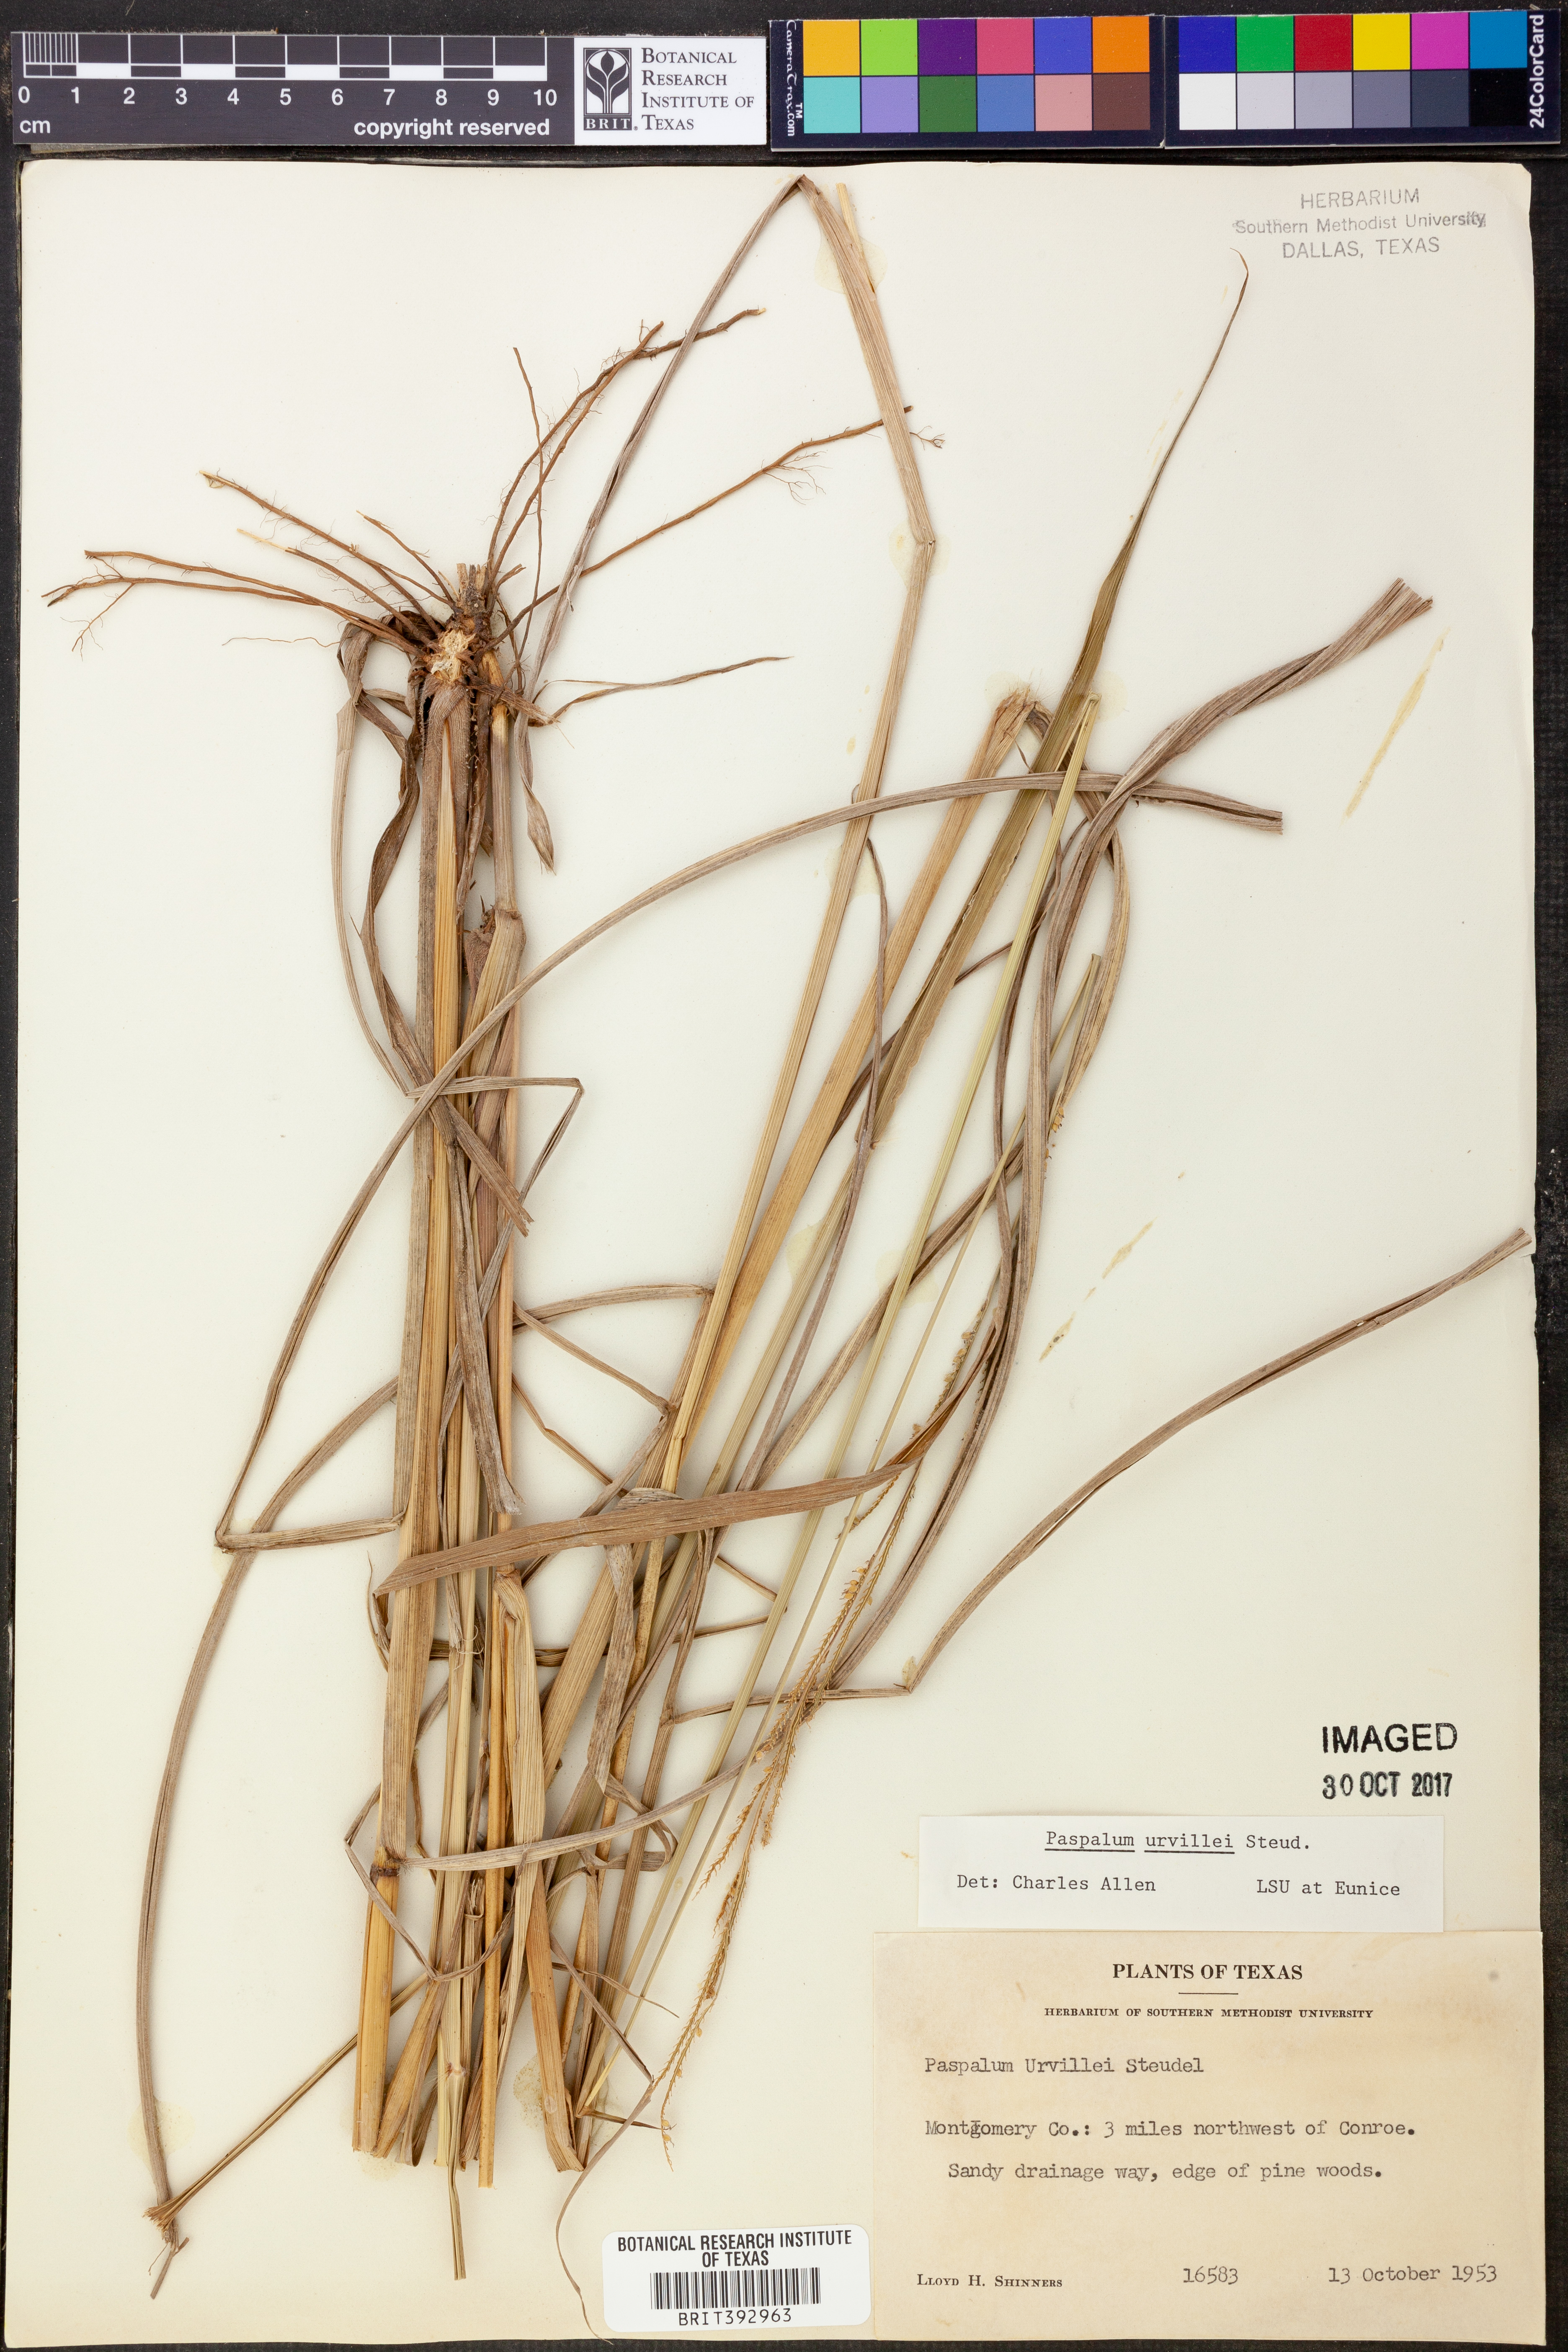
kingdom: Plantae
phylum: Tracheophyta
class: Liliopsida
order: Poales
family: Poaceae
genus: Paspalum
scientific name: Paspalum urvillei
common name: Vasey's grass
